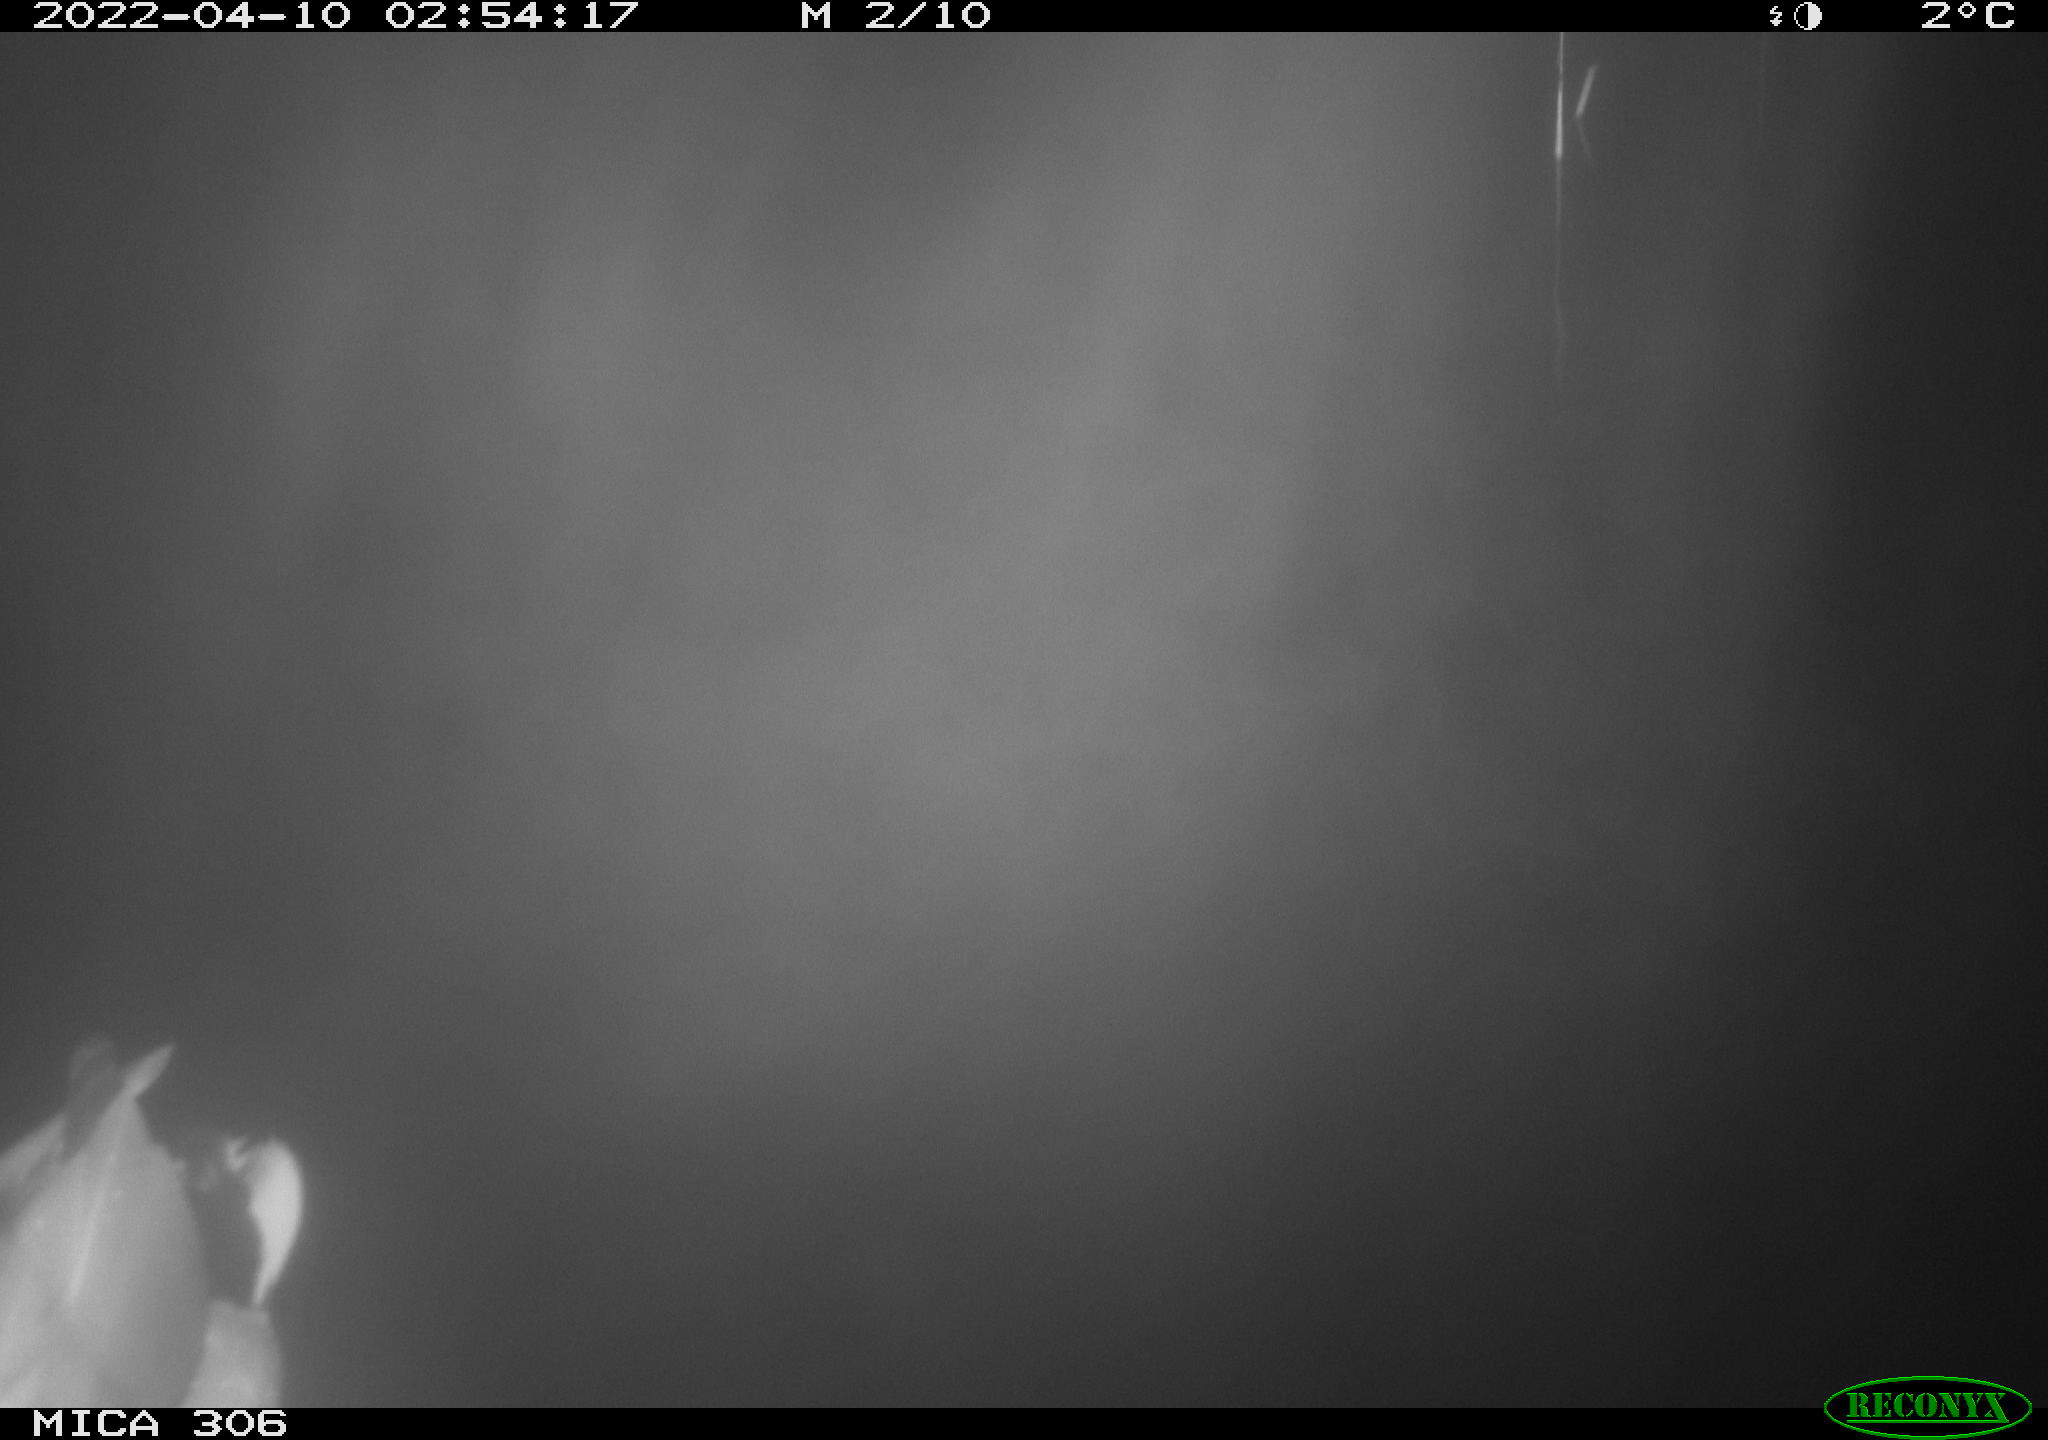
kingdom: Animalia
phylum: Chordata
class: Aves
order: Anseriformes
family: Anatidae
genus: Anas
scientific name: Anas platyrhynchos
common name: Mallard
